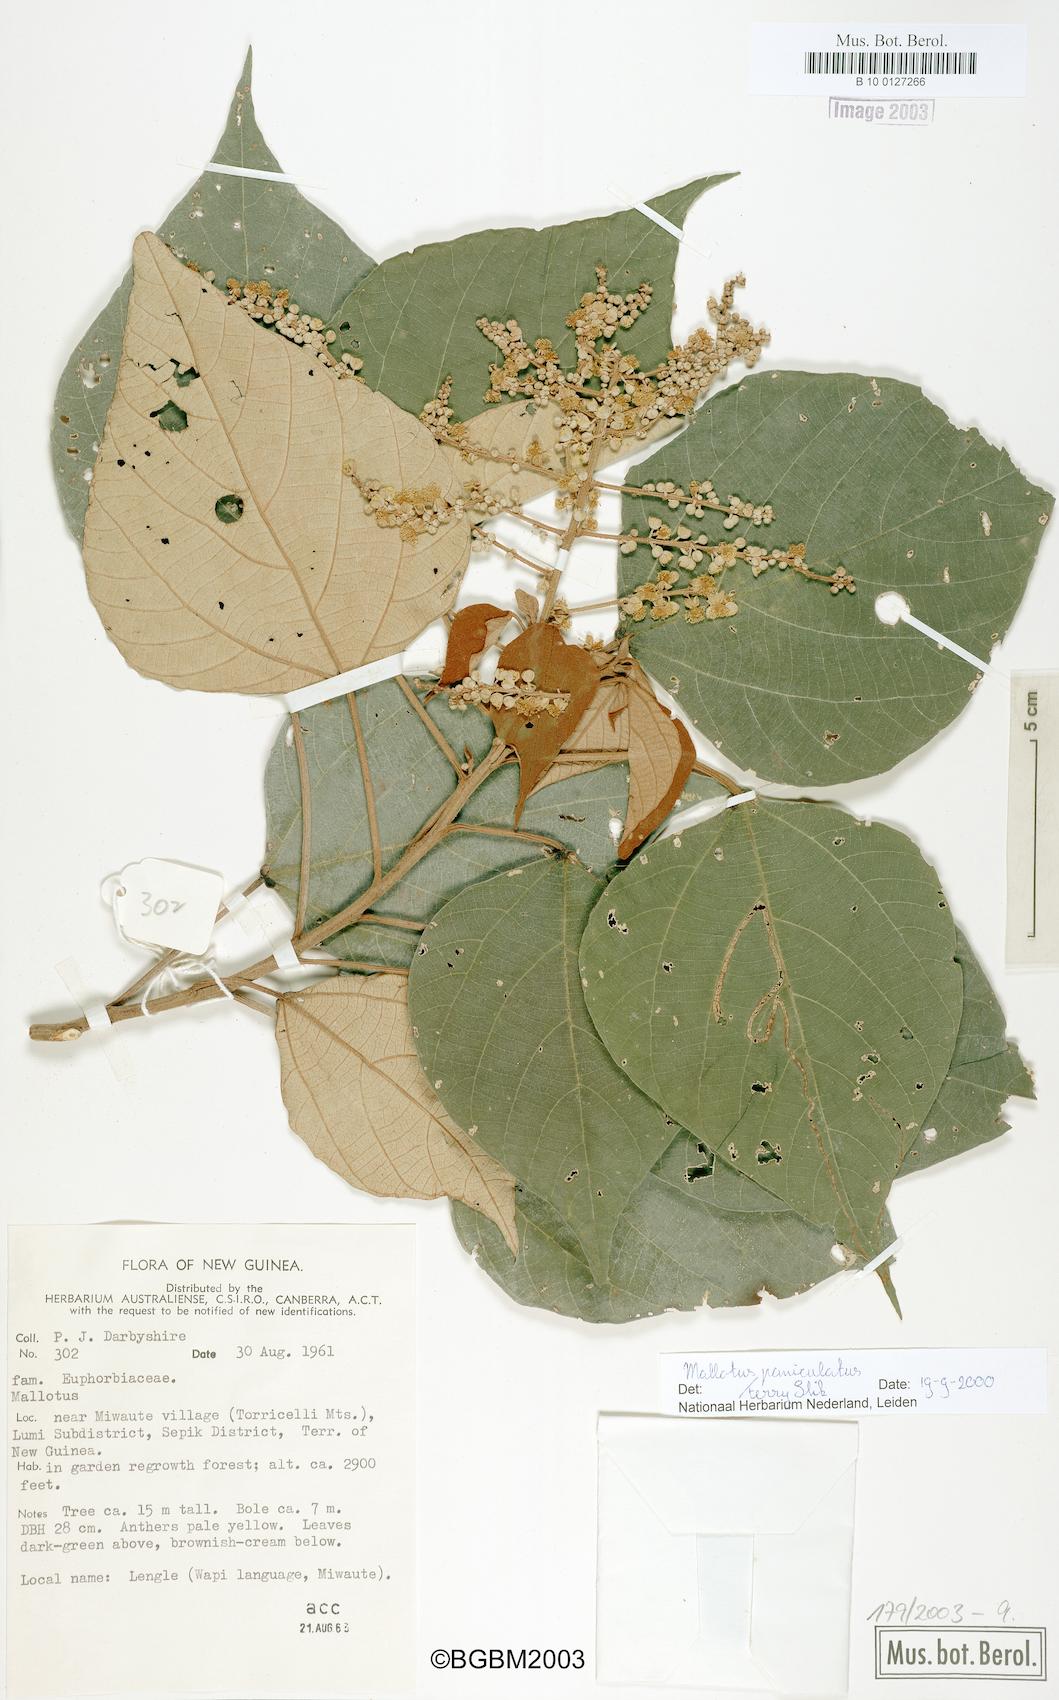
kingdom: Plantae
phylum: Tracheophyta
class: Magnoliopsida
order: Malpighiales
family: Euphorbiaceae
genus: Mallotus
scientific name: Mallotus paniculatus
